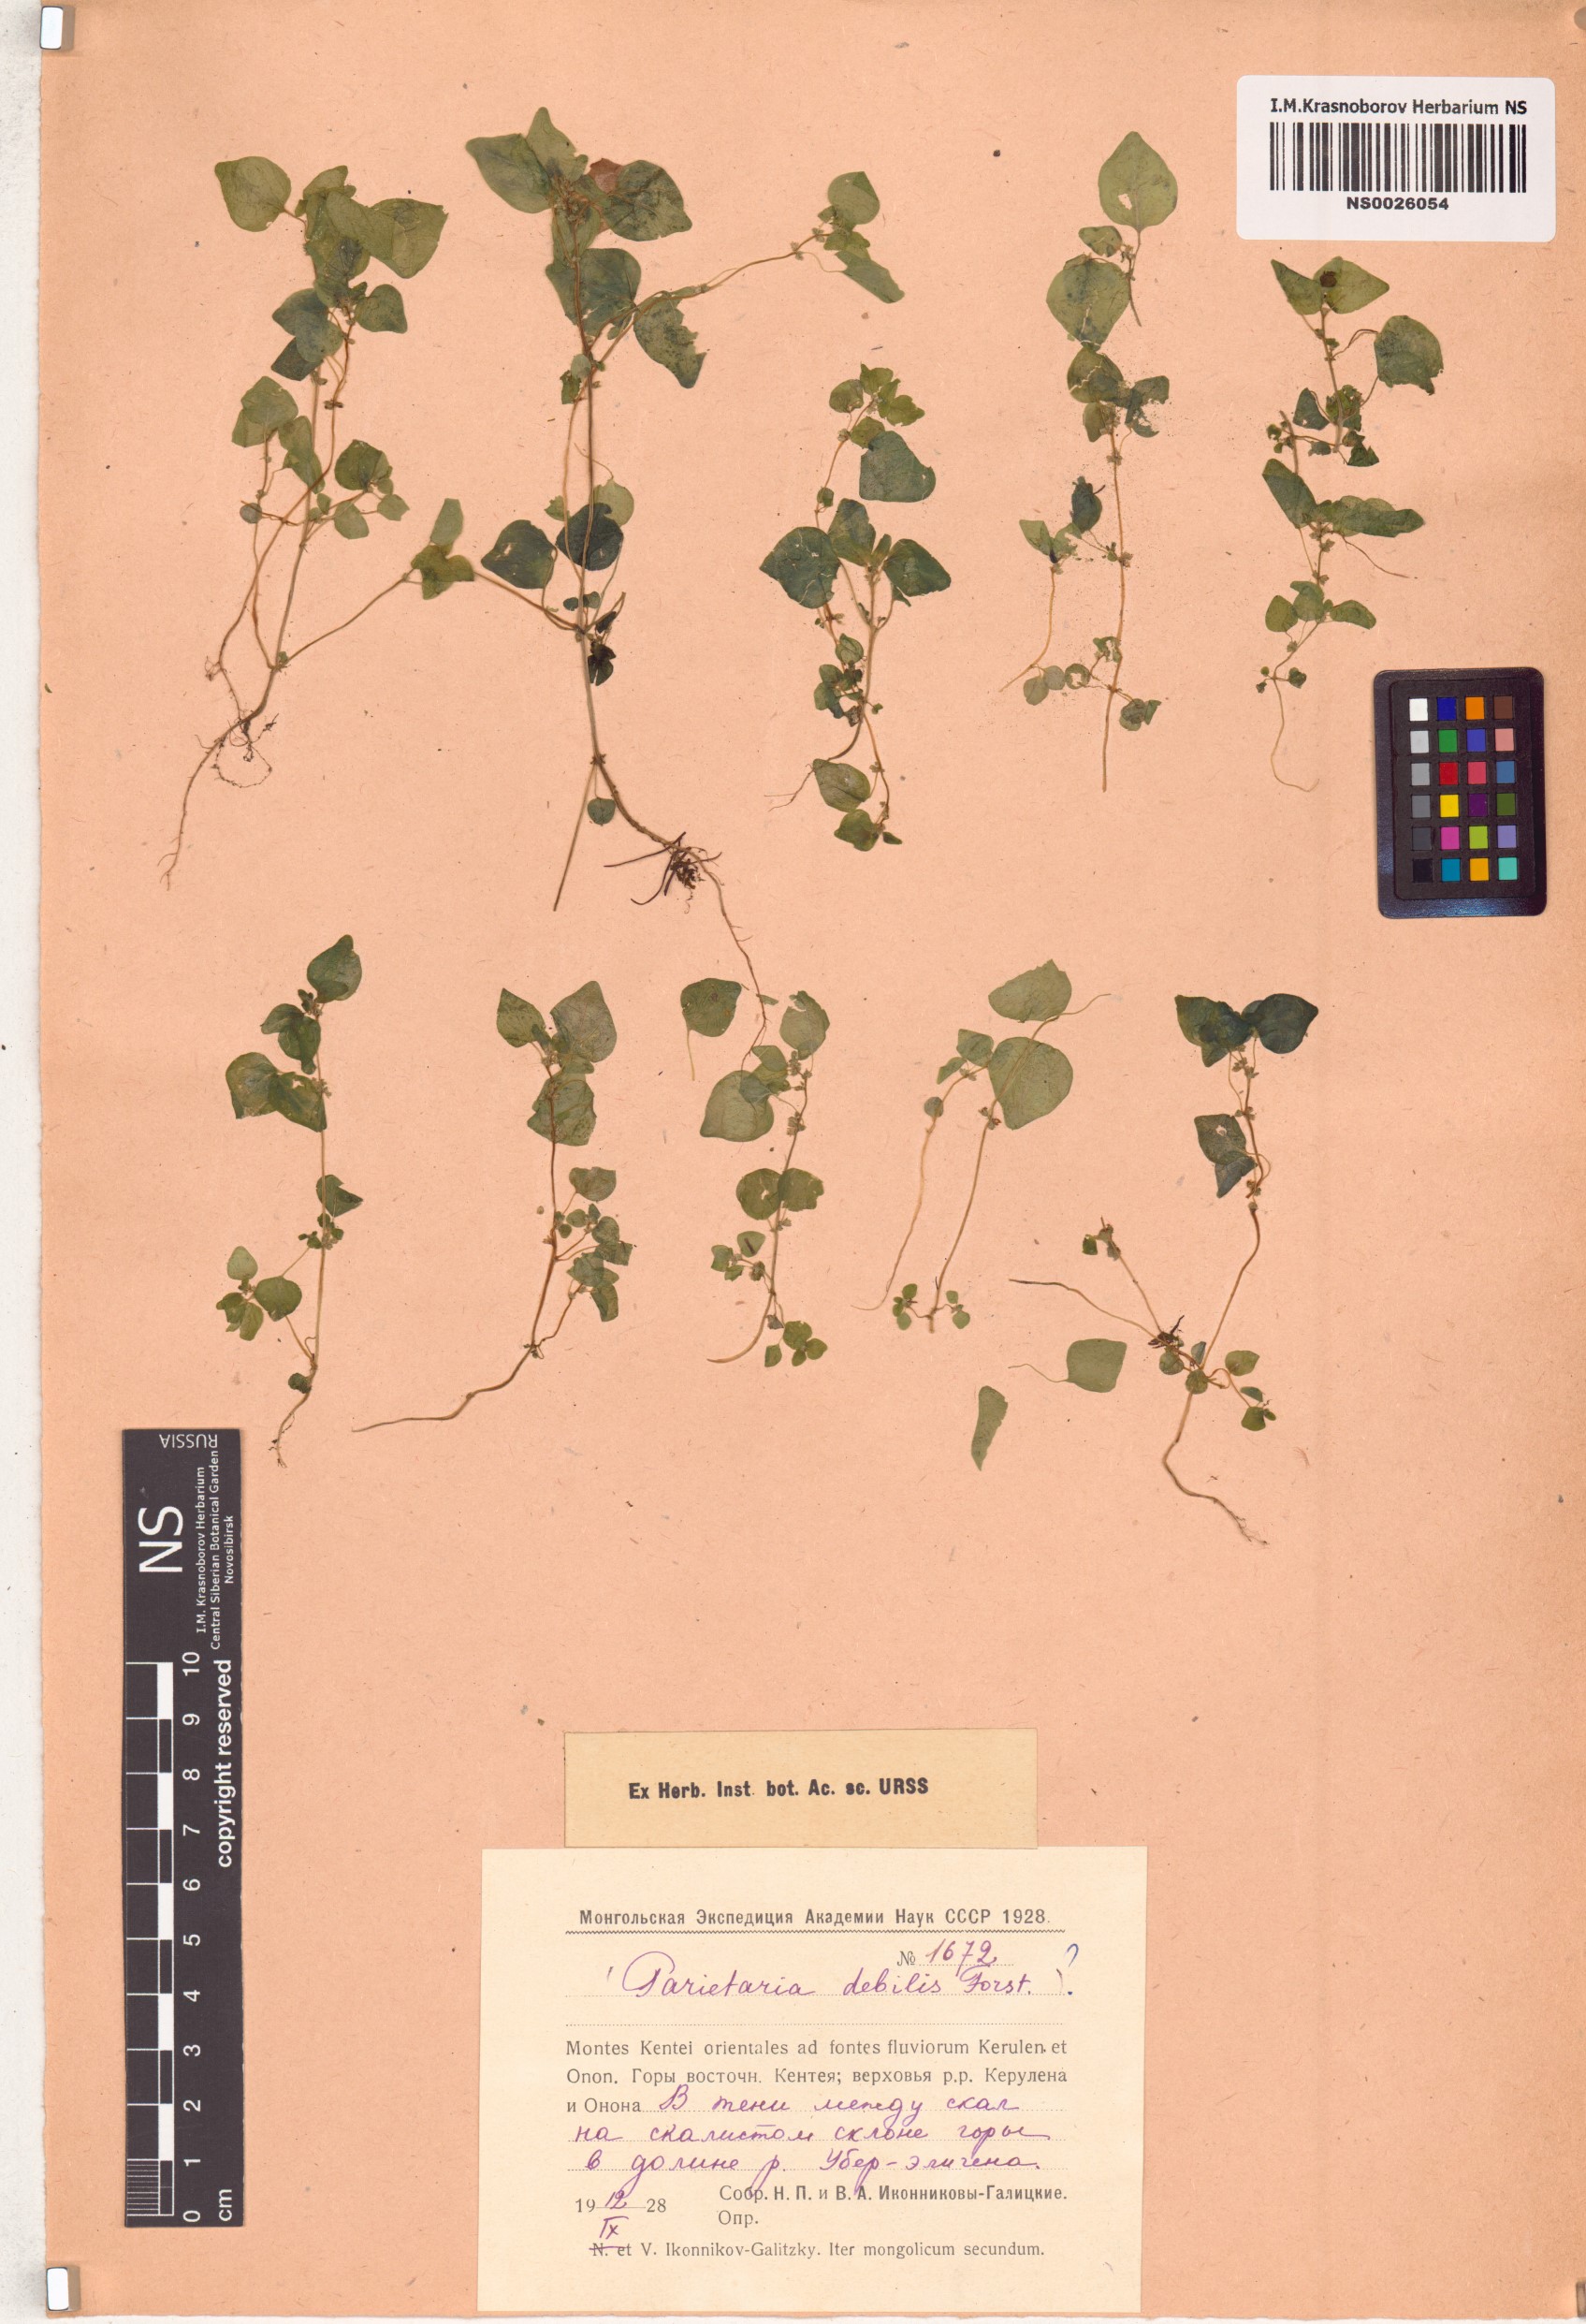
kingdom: Plantae
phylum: Tracheophyta
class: Magnoliopsida
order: Rosales
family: Urticaceae
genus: Parietaria
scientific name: Parietaria debilis
